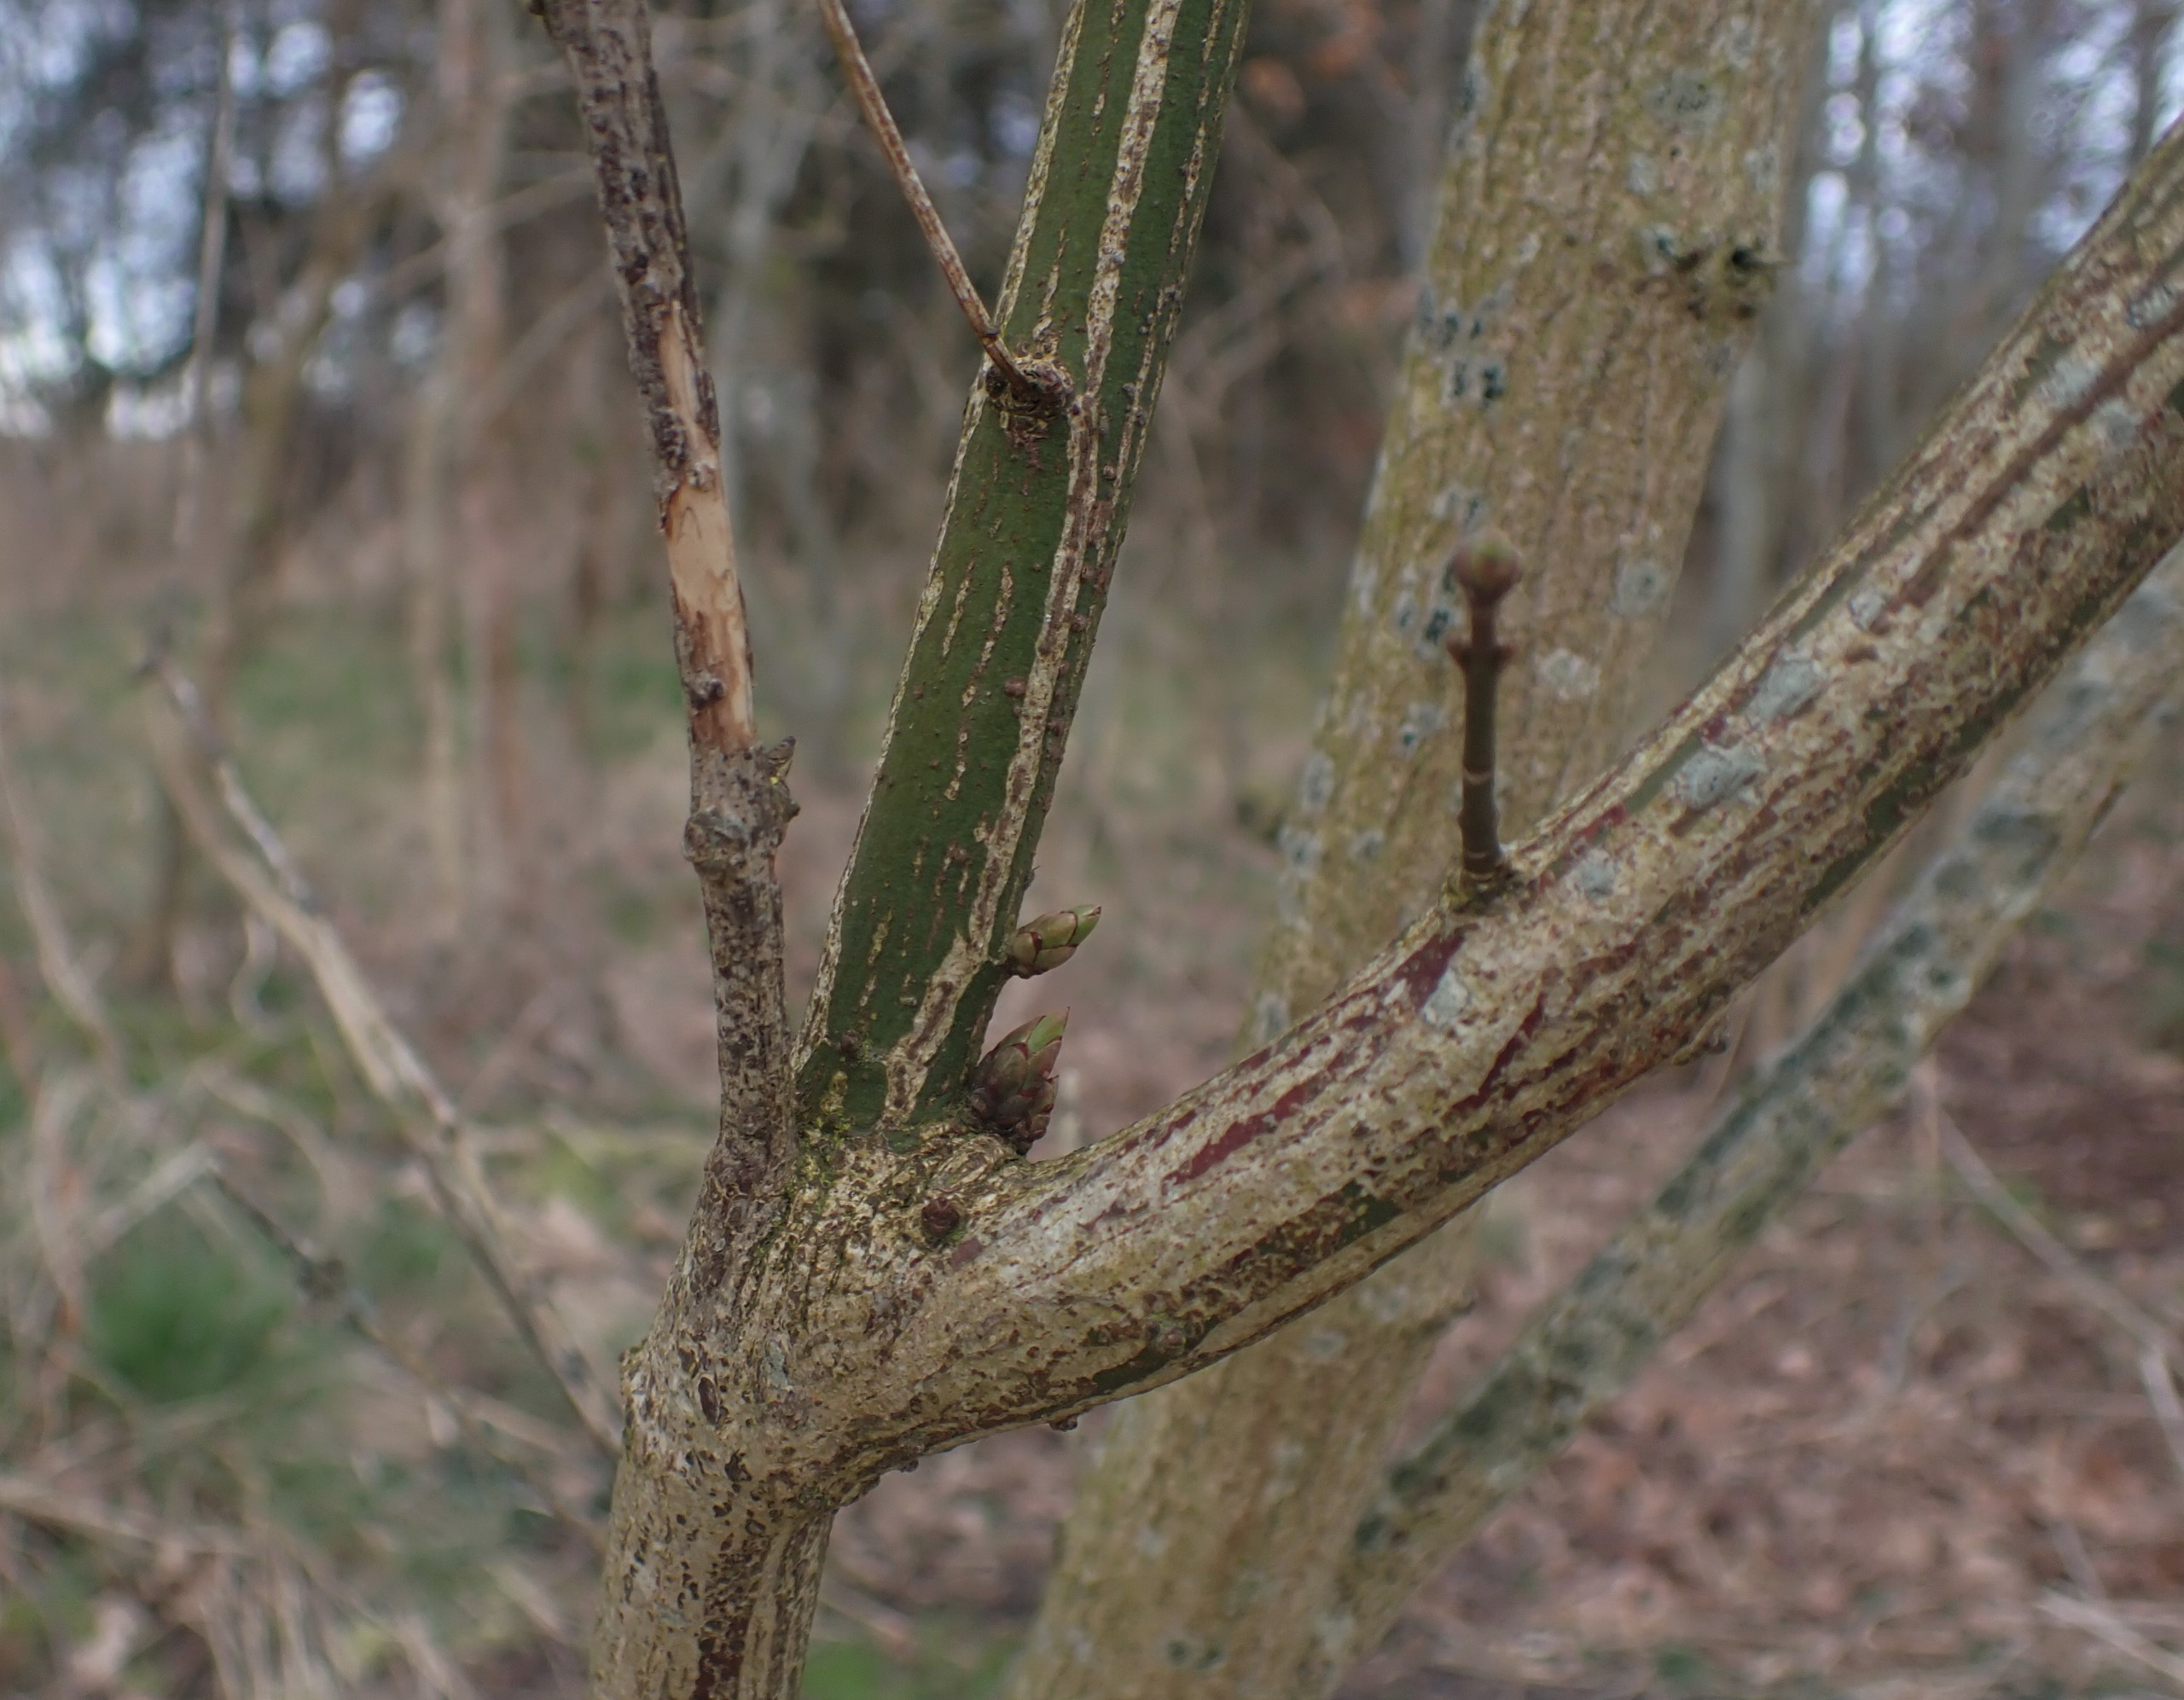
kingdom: Plantae
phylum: Tracheophyta
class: Magnoliopsida
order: Celastrales
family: Celastraceae
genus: Euonymus
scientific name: Euonymus europaeus
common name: Benved
